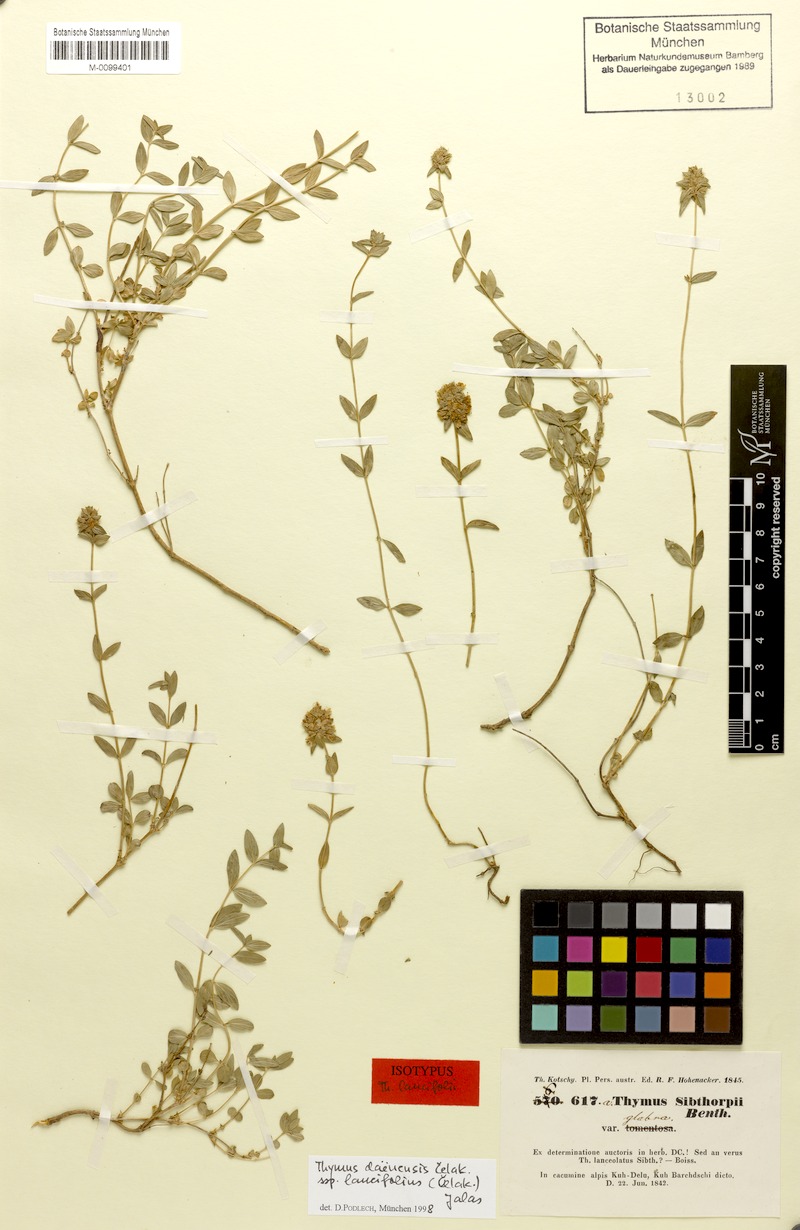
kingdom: Plantae
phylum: Tracheophyta
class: Magnoliopsida
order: Lamiales
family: Lamiaceae
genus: Thymus
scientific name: Thymus daenensis
